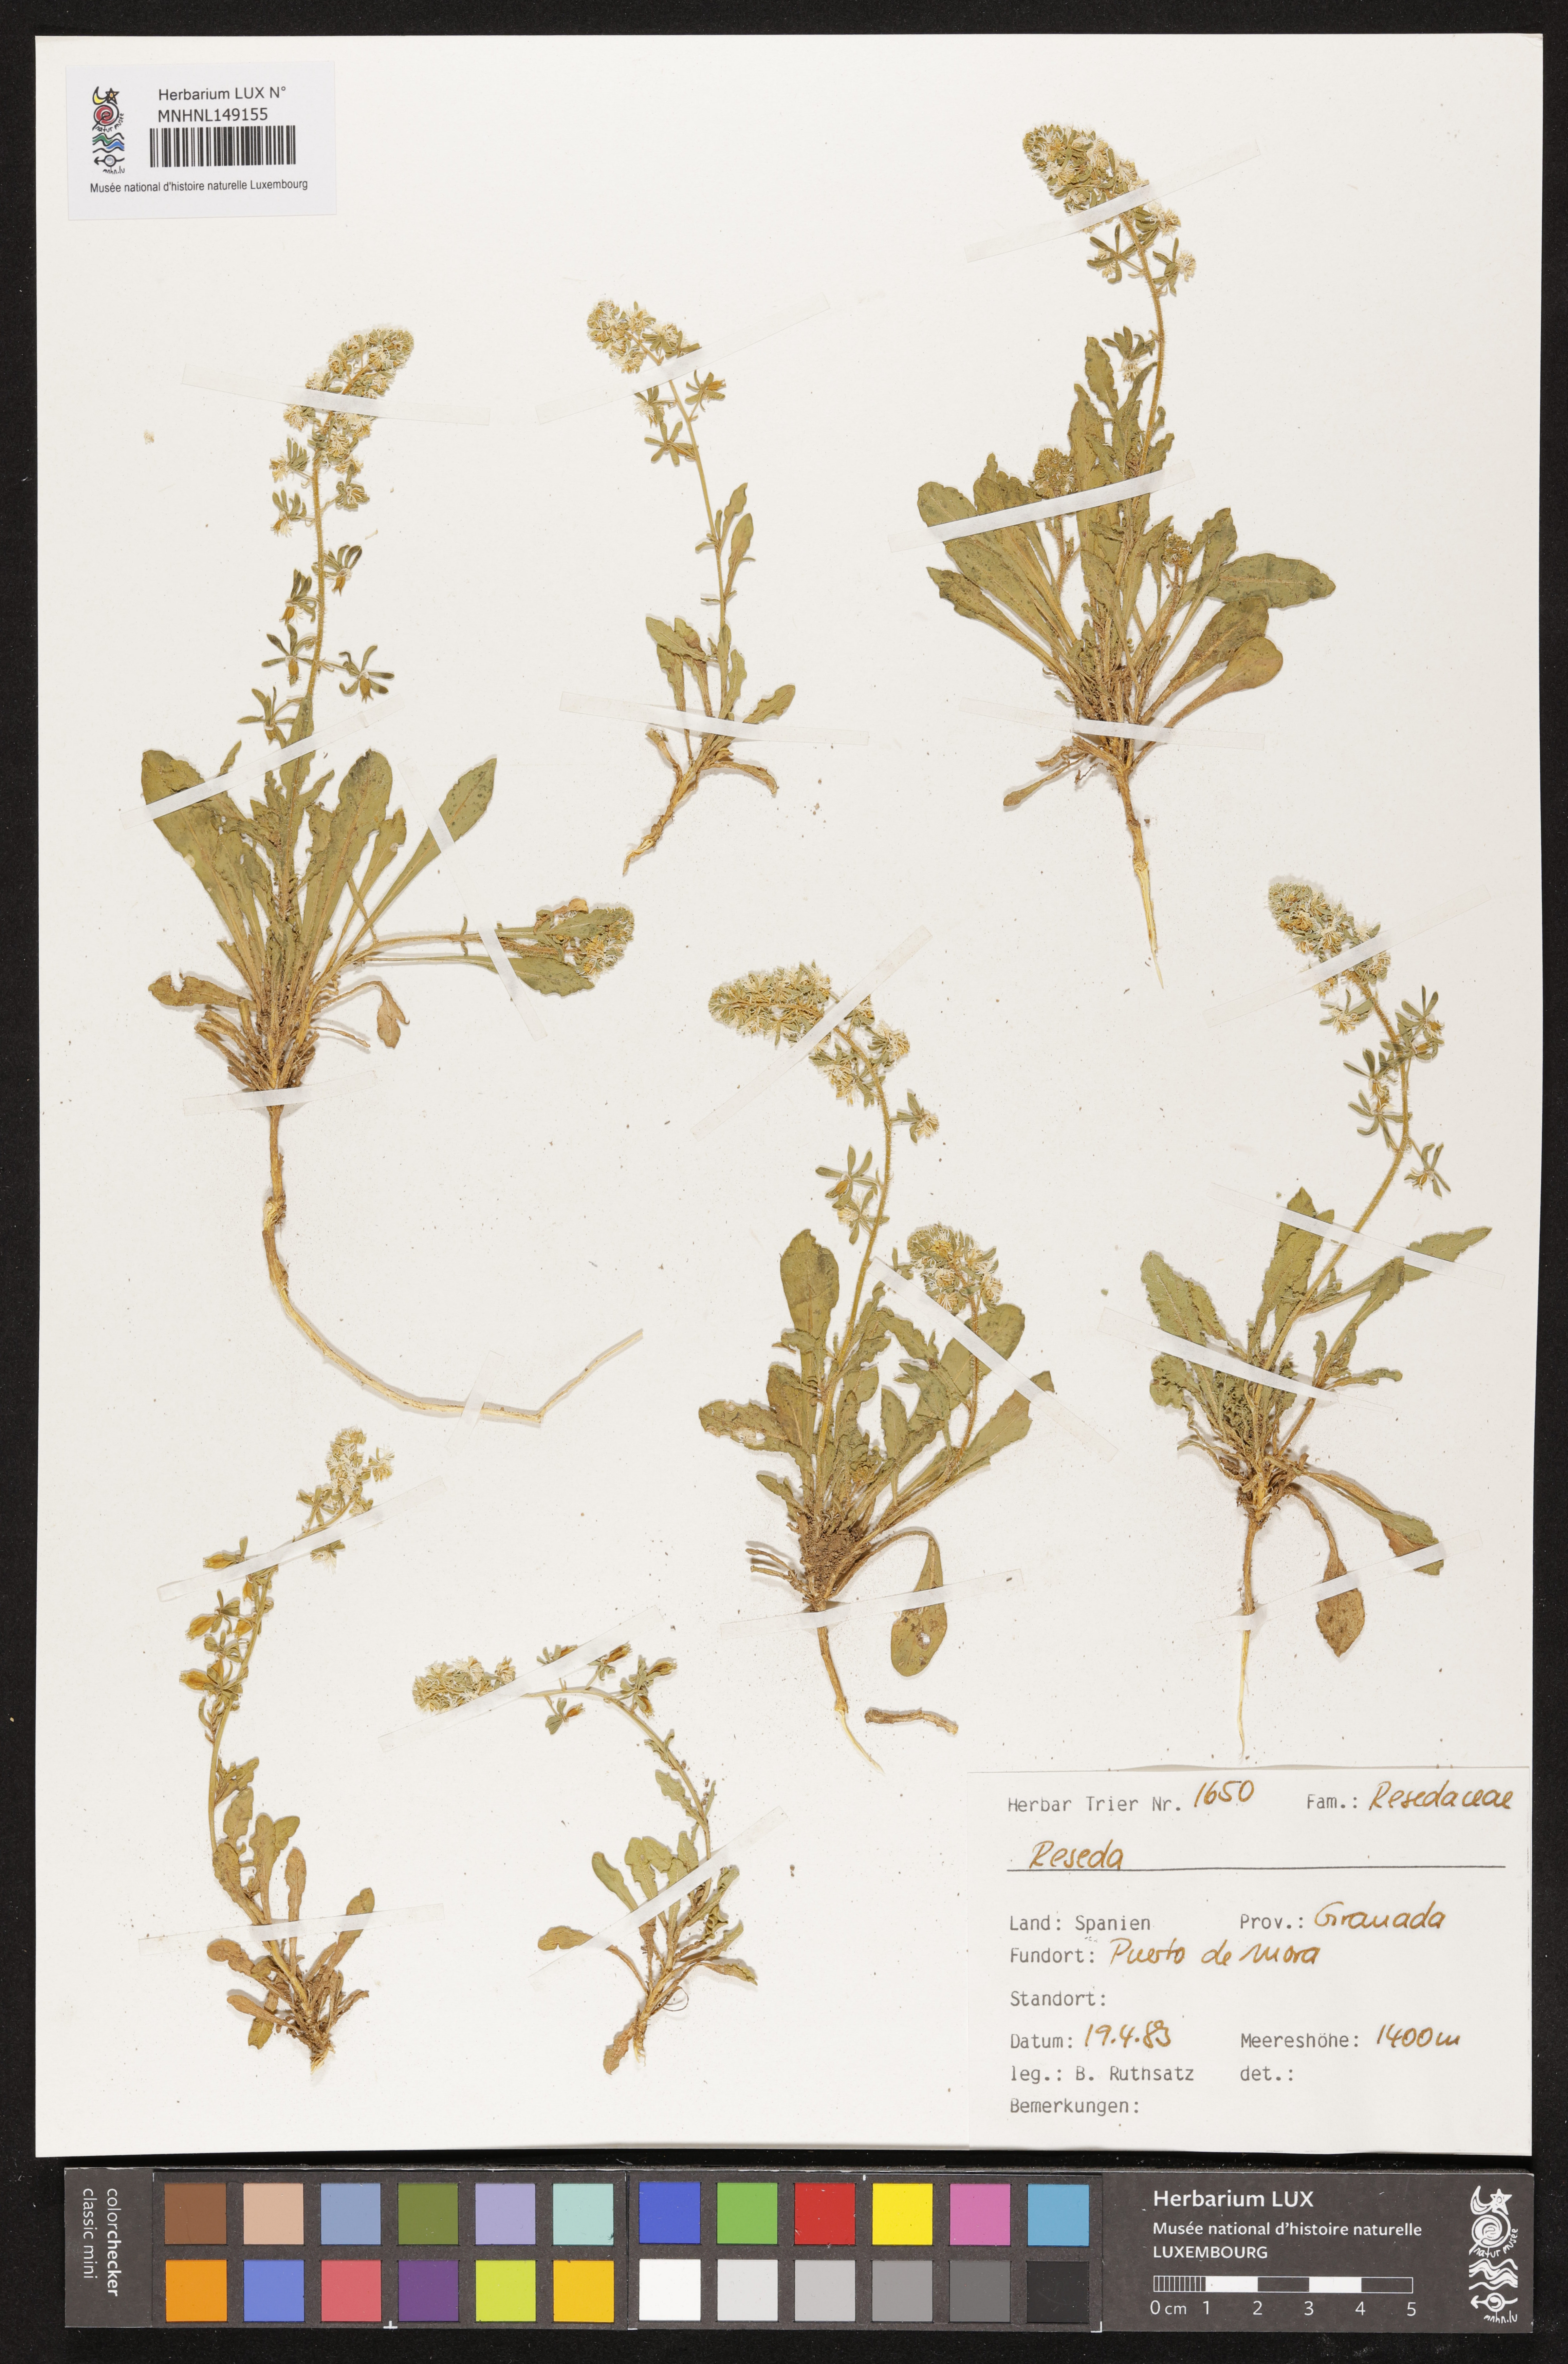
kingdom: Plantae
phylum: Tracheophyta
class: Magnoliopsida
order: Brassicales
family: Resedaceae
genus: Reseda
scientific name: Reseda
